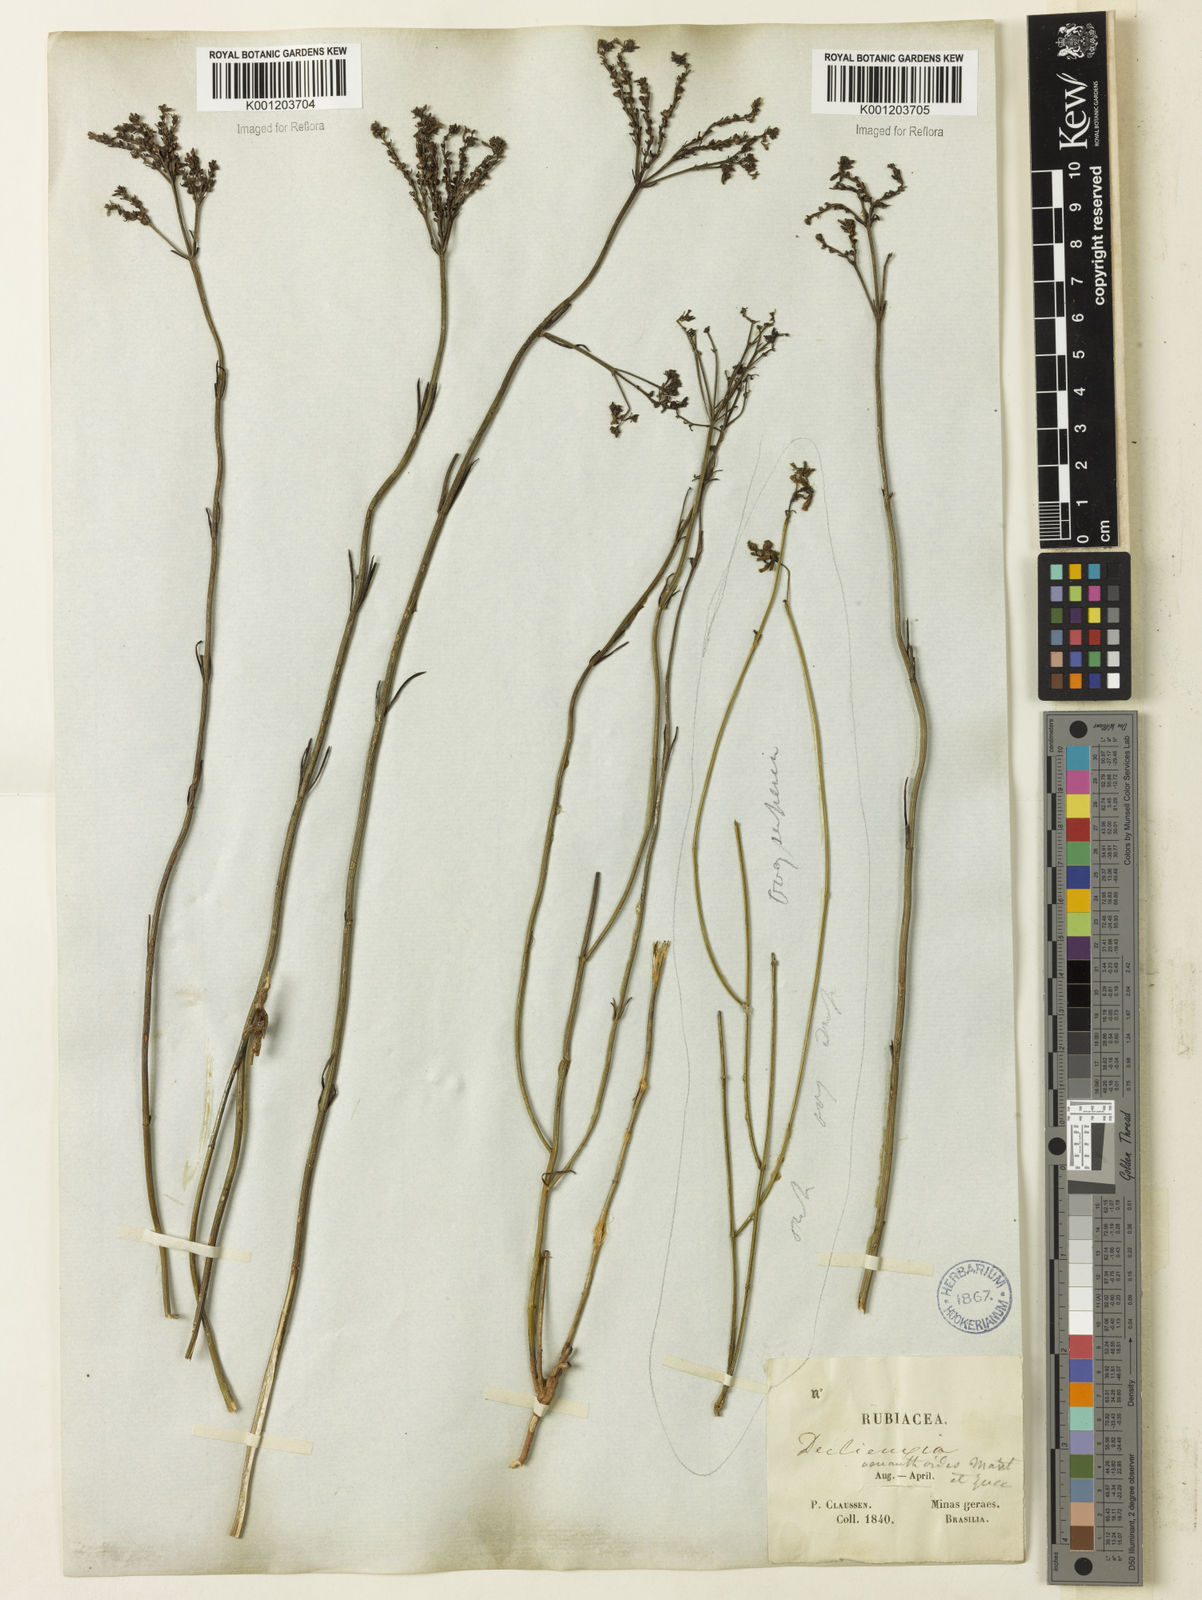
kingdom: Plantae
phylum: Tracheophyta
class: Magnoliopsida
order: Gentianales
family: Rubiaceae
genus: Declieuxia
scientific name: Declieuxia
